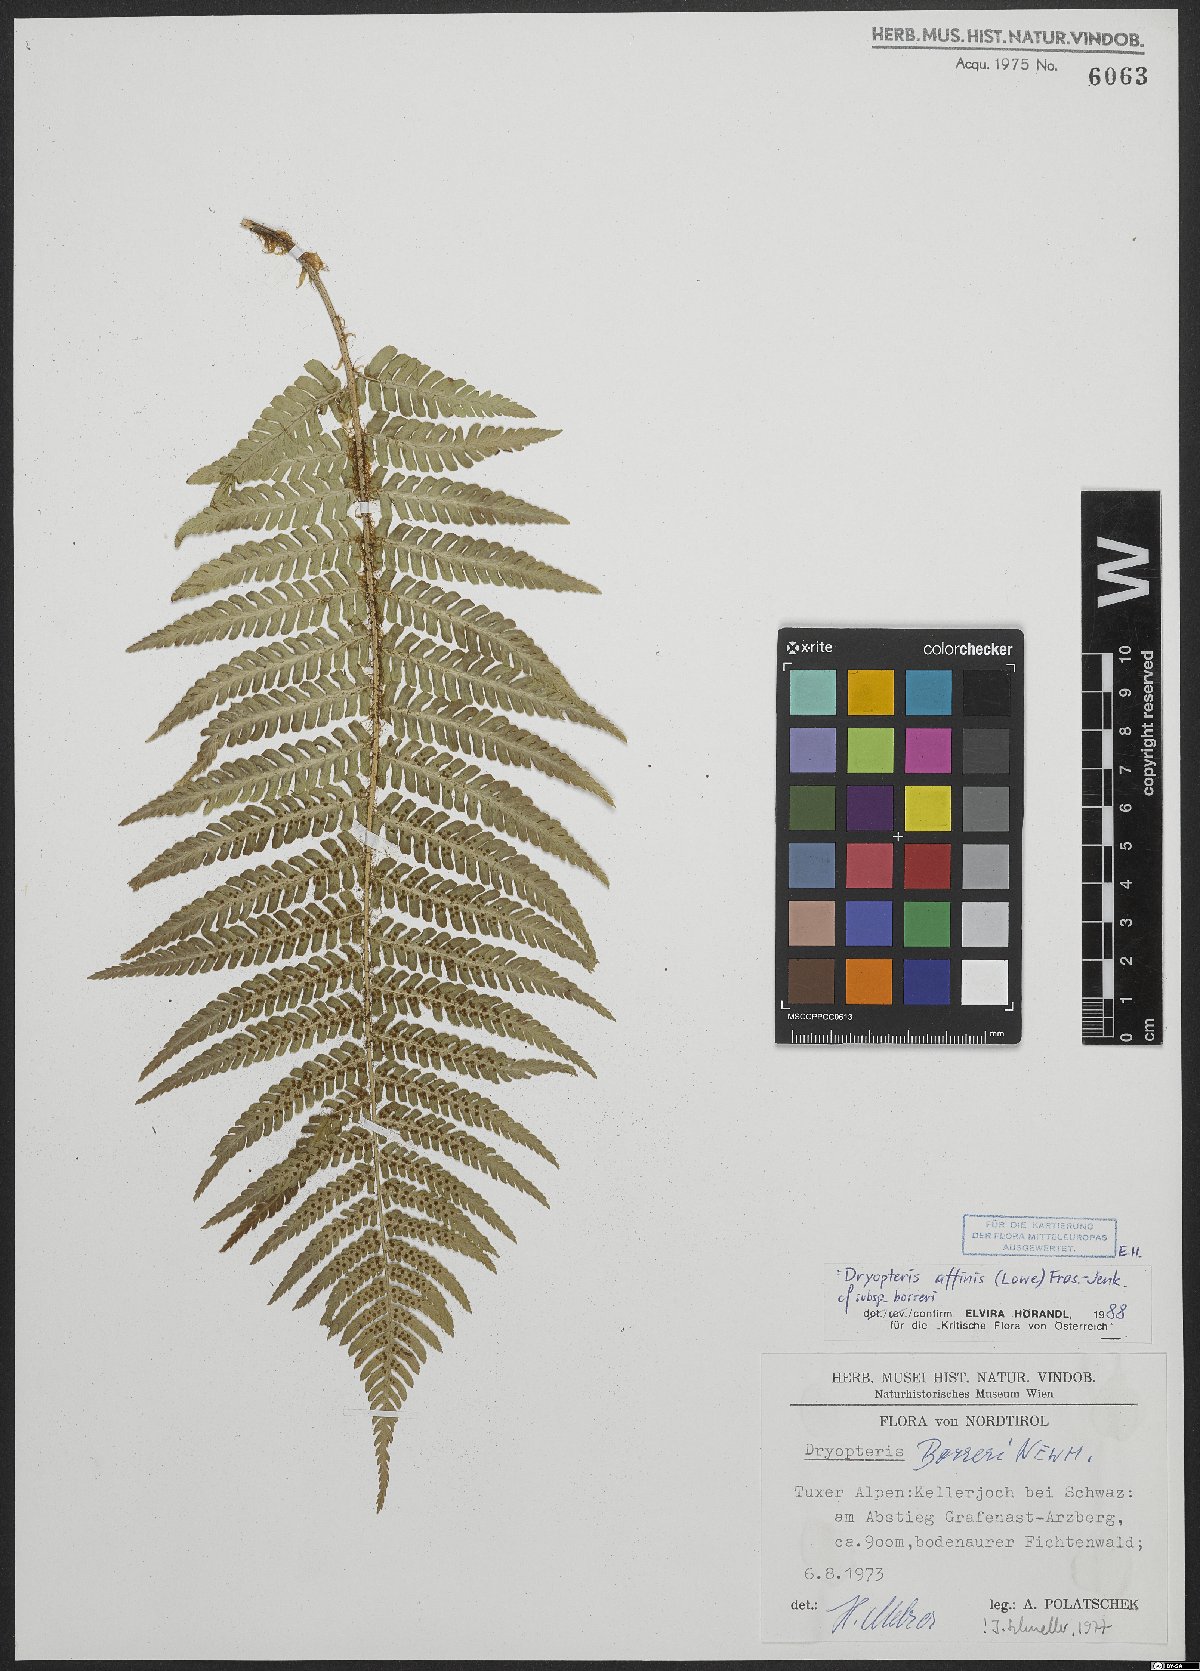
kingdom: Plantae
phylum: Tracheophyta
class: Polypodiopsida
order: Polypodiales
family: Dryopteridaceae
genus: Dryopteris
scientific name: Dryopteris borreri
